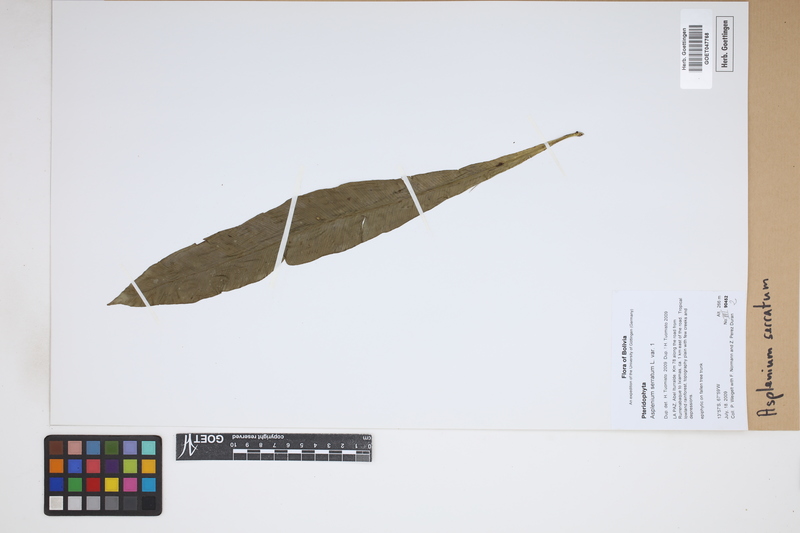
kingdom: Plantae
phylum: Tracheophyta
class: Polypodiopsida
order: Polypodiales
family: Aspleniaceae
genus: Asplenium
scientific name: Asplenium serratum
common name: Wild birdnest fern
